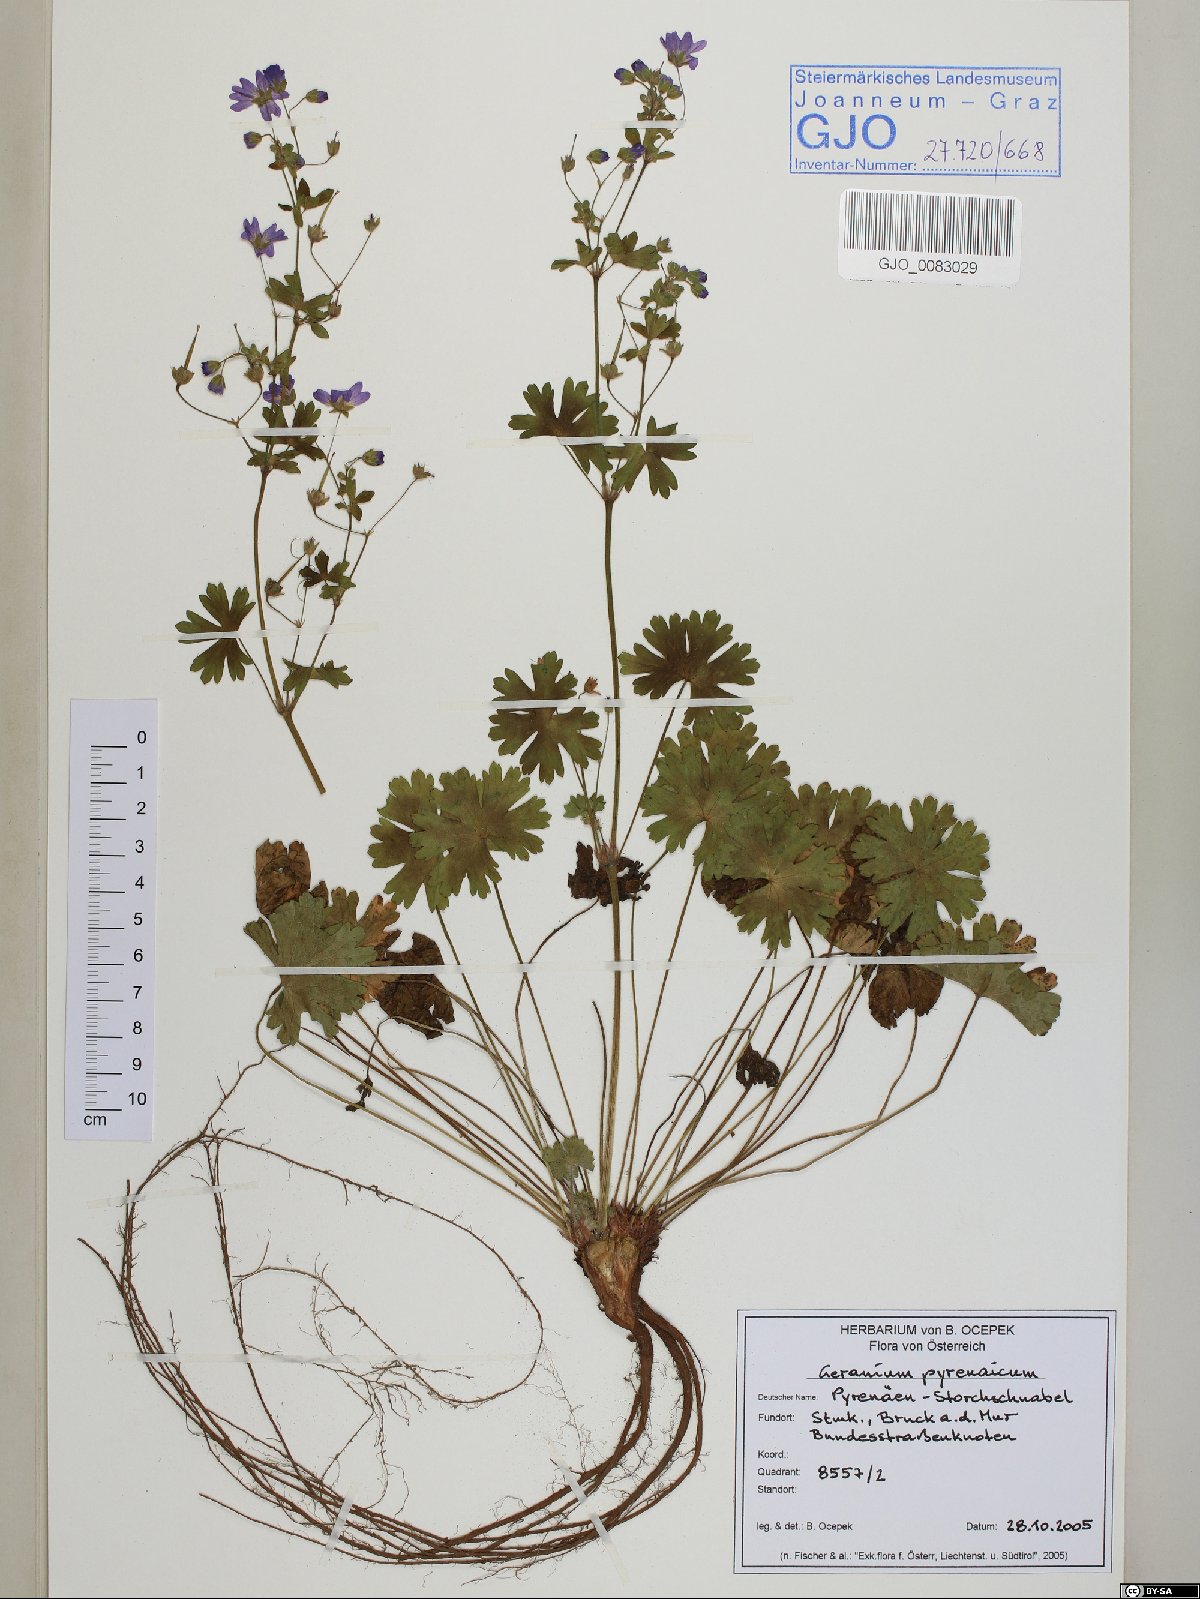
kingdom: Plantae
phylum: Tracheophyta
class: Magnoliopsida
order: Geraniales
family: Geraniaceae
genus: Geranium
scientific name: Geranium pyrenaicum
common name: Hedgerow crane's-bill
